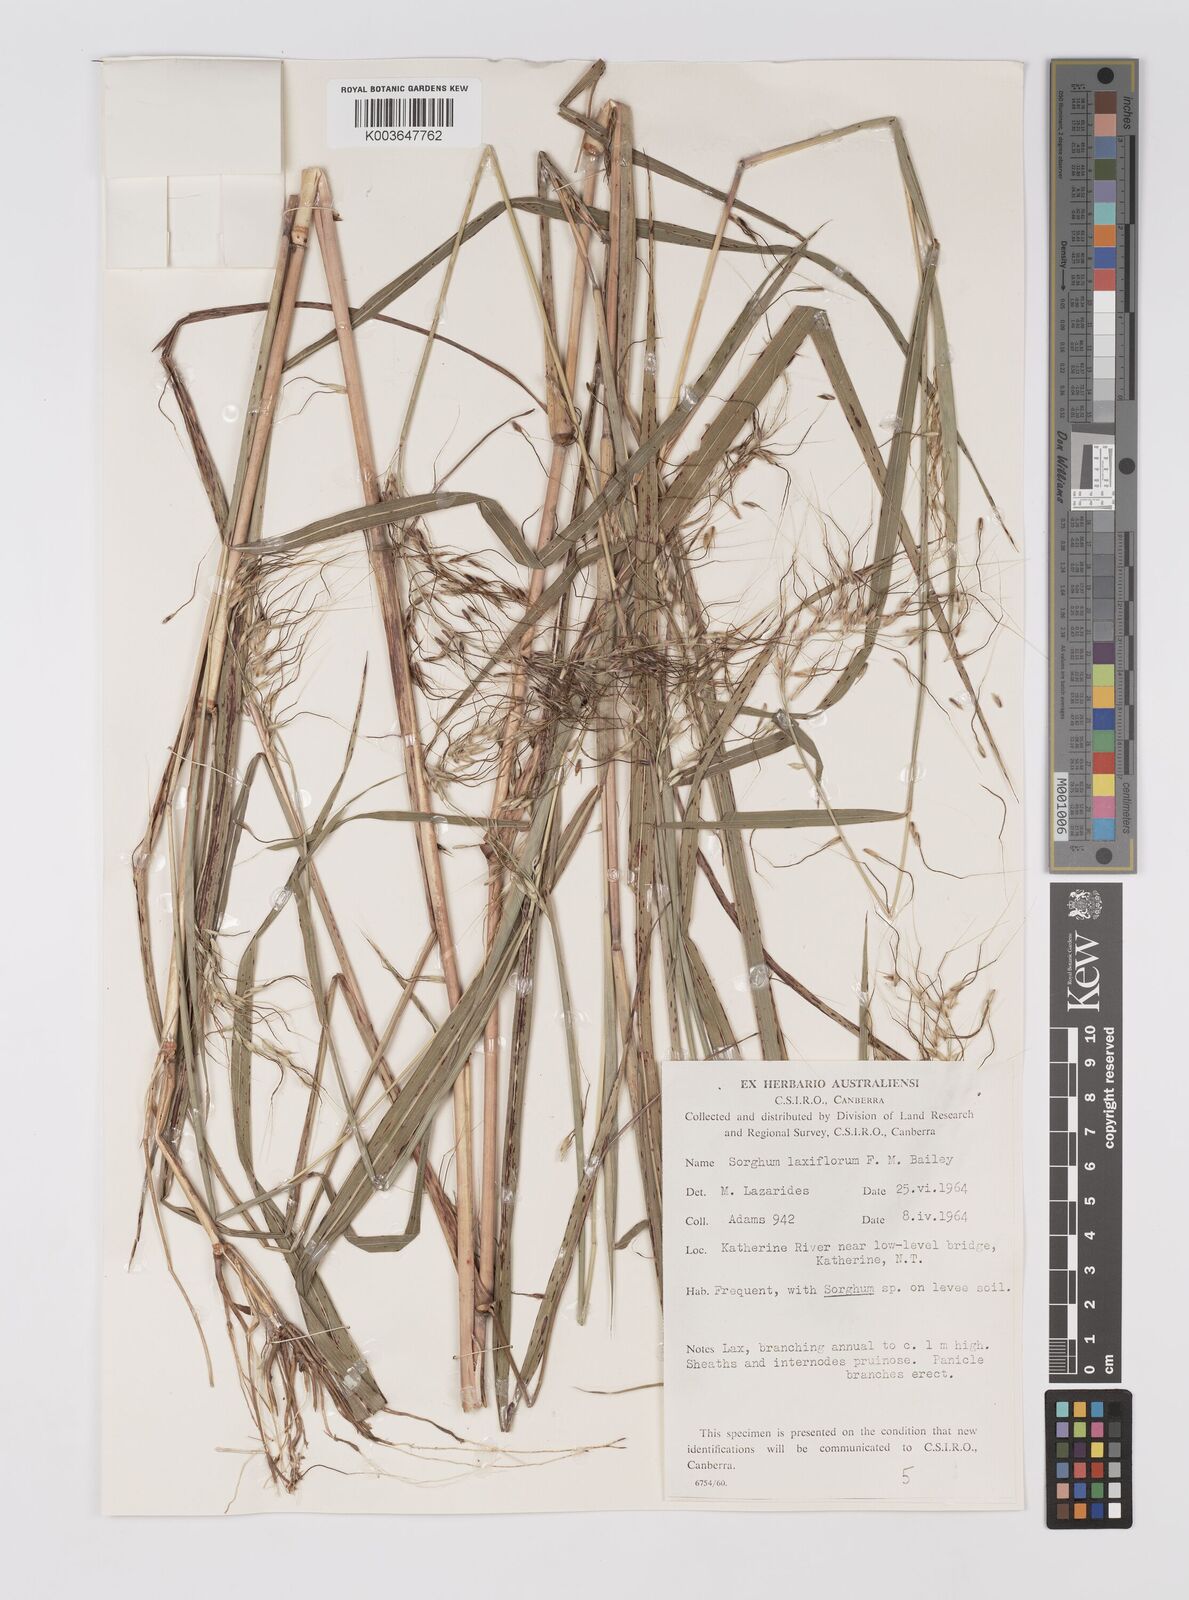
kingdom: Plantae
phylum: Tracheophyta
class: Liliopsida
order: Poales
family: Poaceae
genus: Sorghum
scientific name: Sorghum laxiflorum
